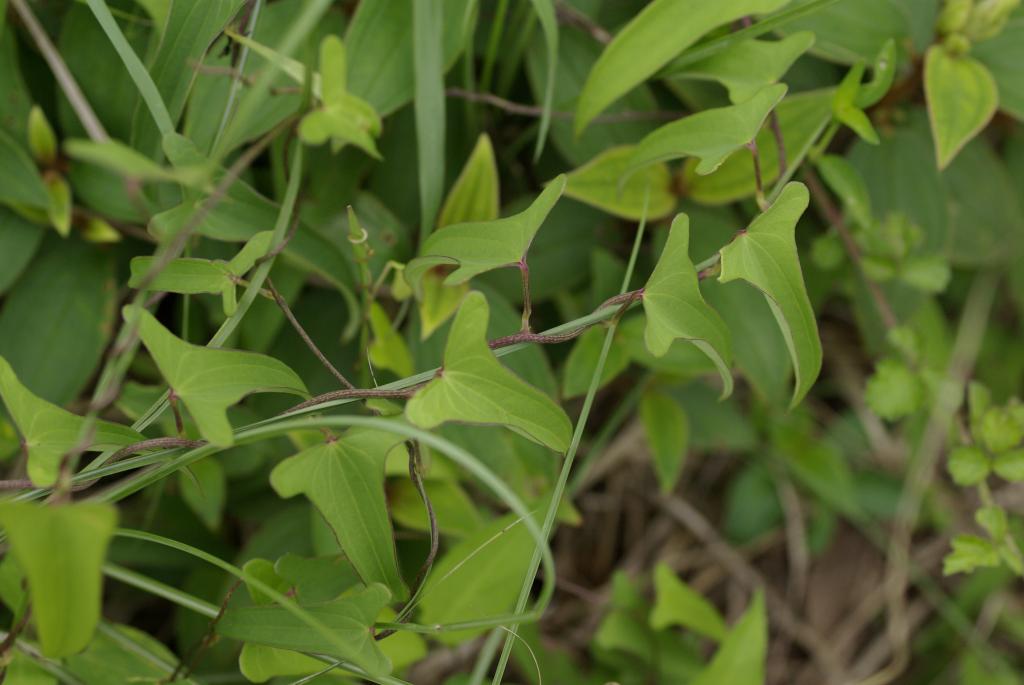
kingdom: Plantae
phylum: Tracheophyta
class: Liliopsida
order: Dioscoreales
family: Dioscoreaceae
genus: Dioscorea
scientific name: Dioscorea japonica
